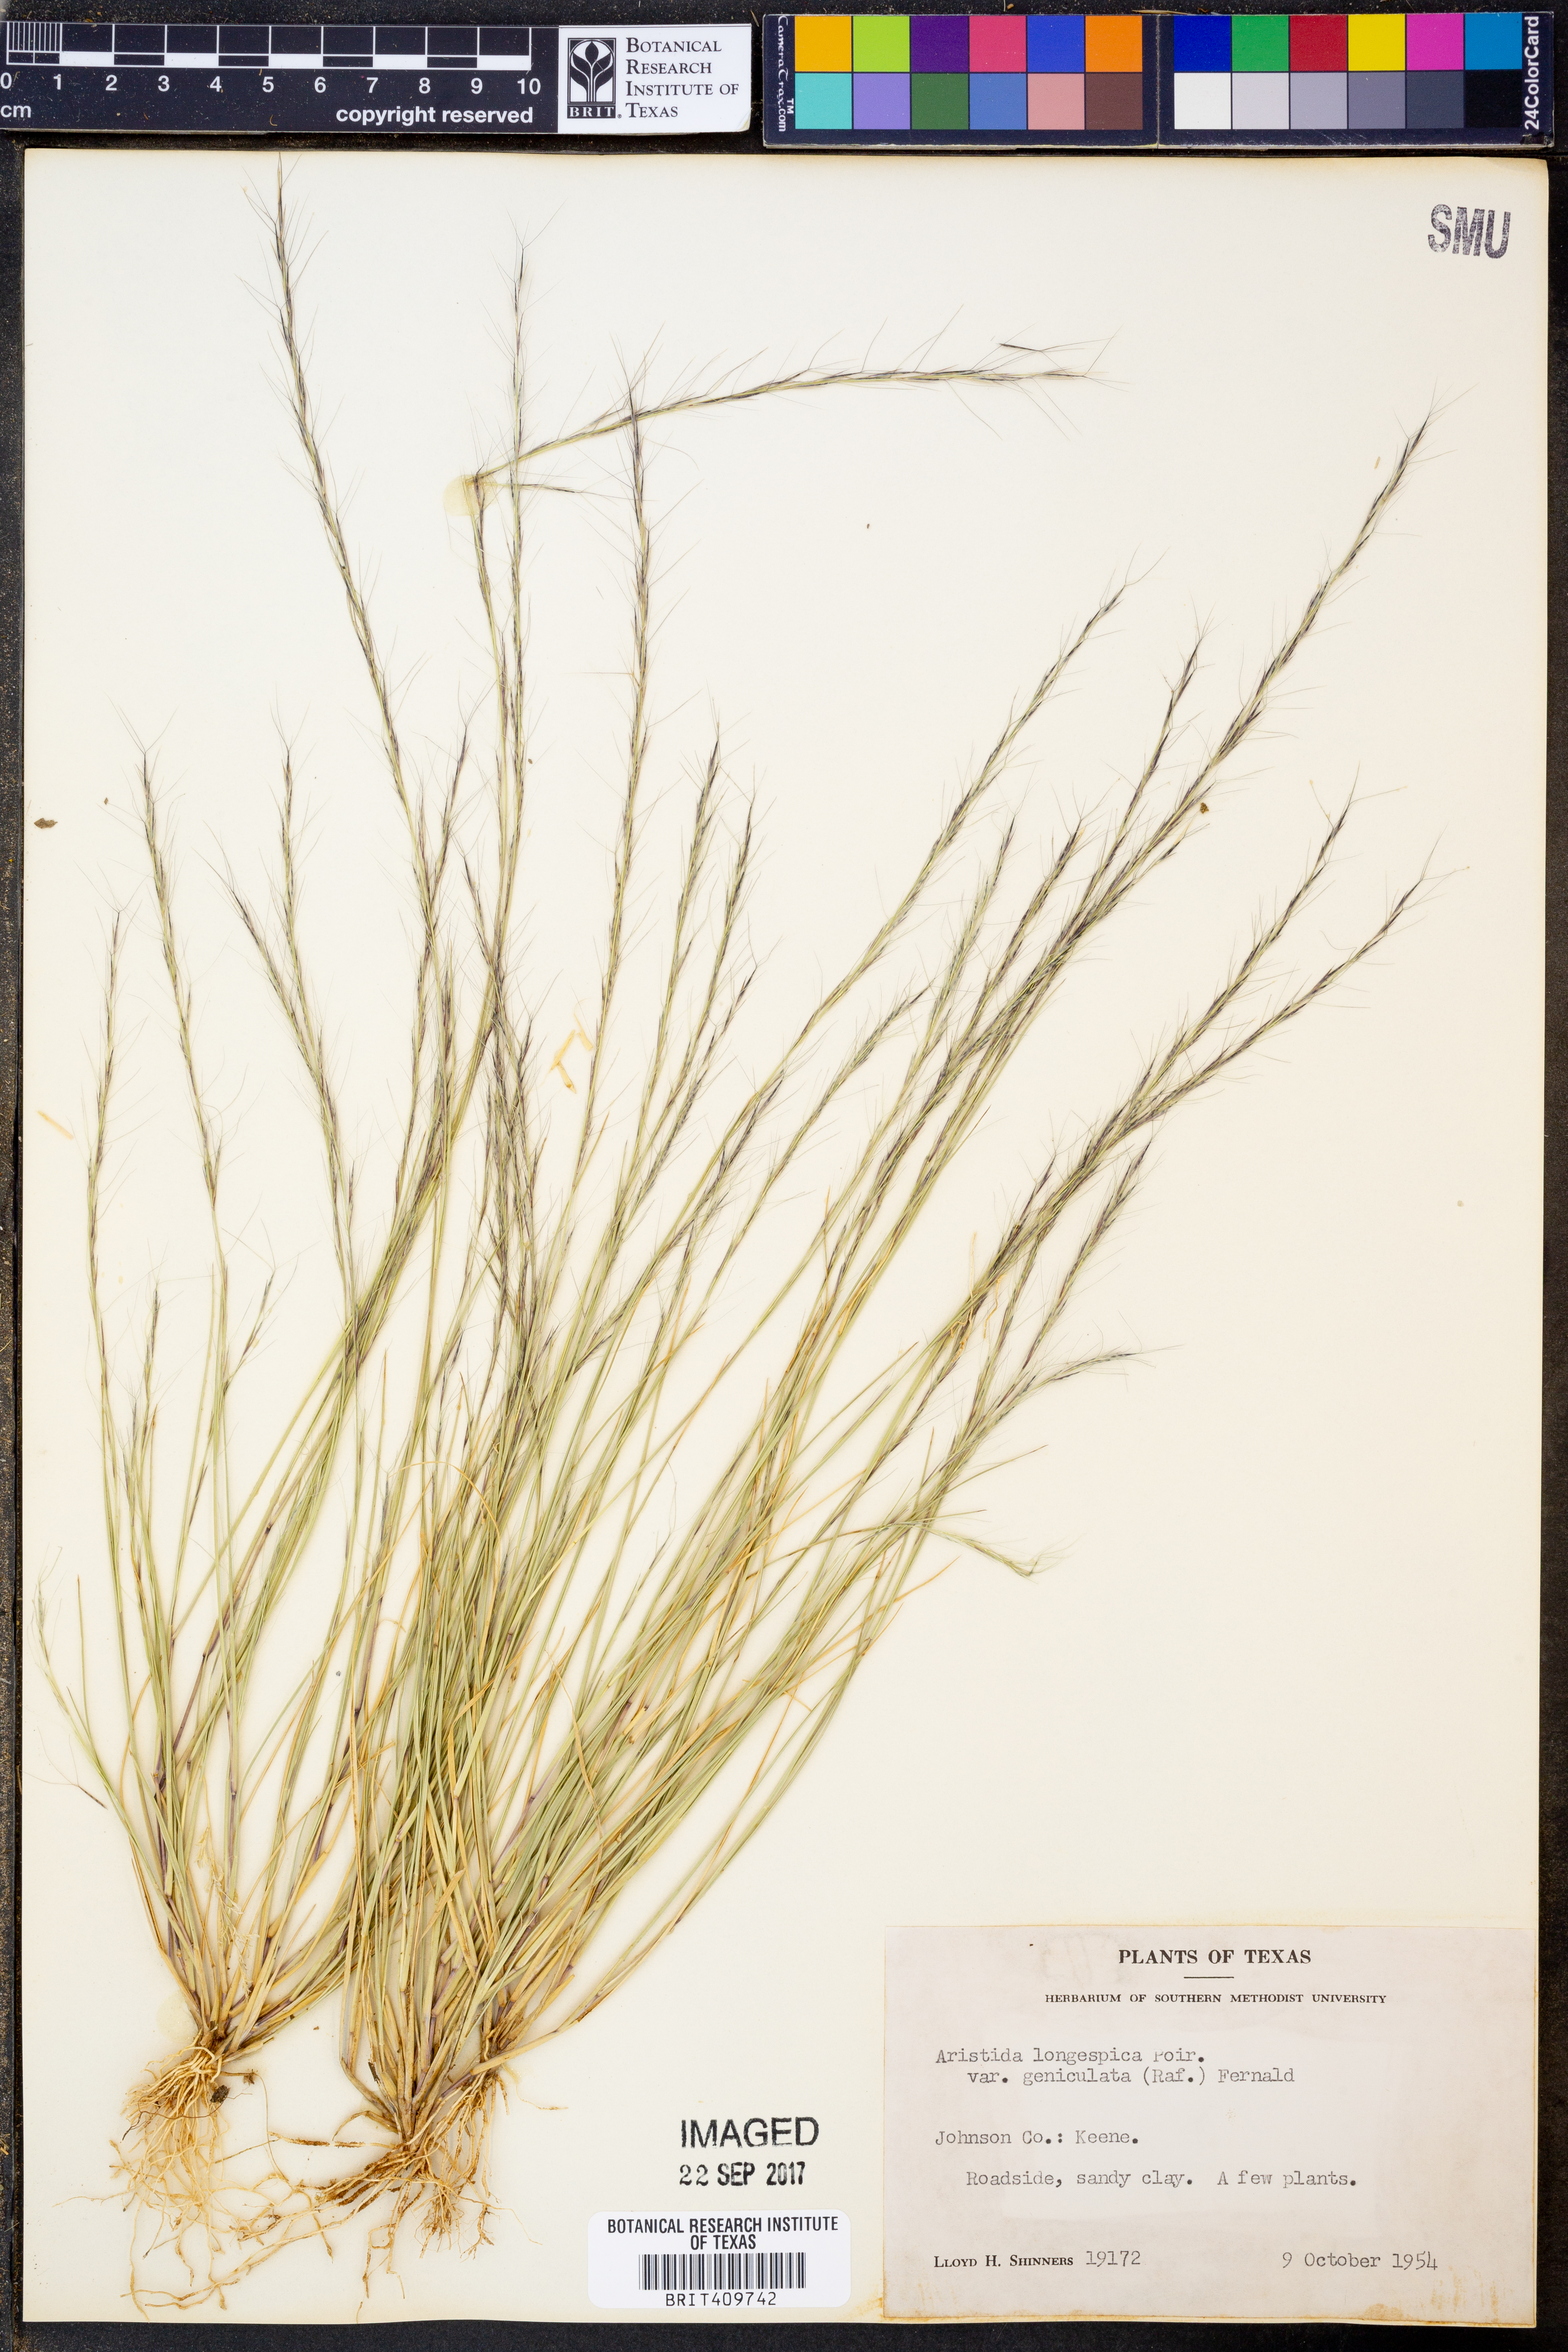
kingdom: Plantae
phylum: Tracheophyta
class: Liliopsida
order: Poales
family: Poaceae
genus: Aristida
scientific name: Aristida longespica
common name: Long-spiked triple-awned grass
